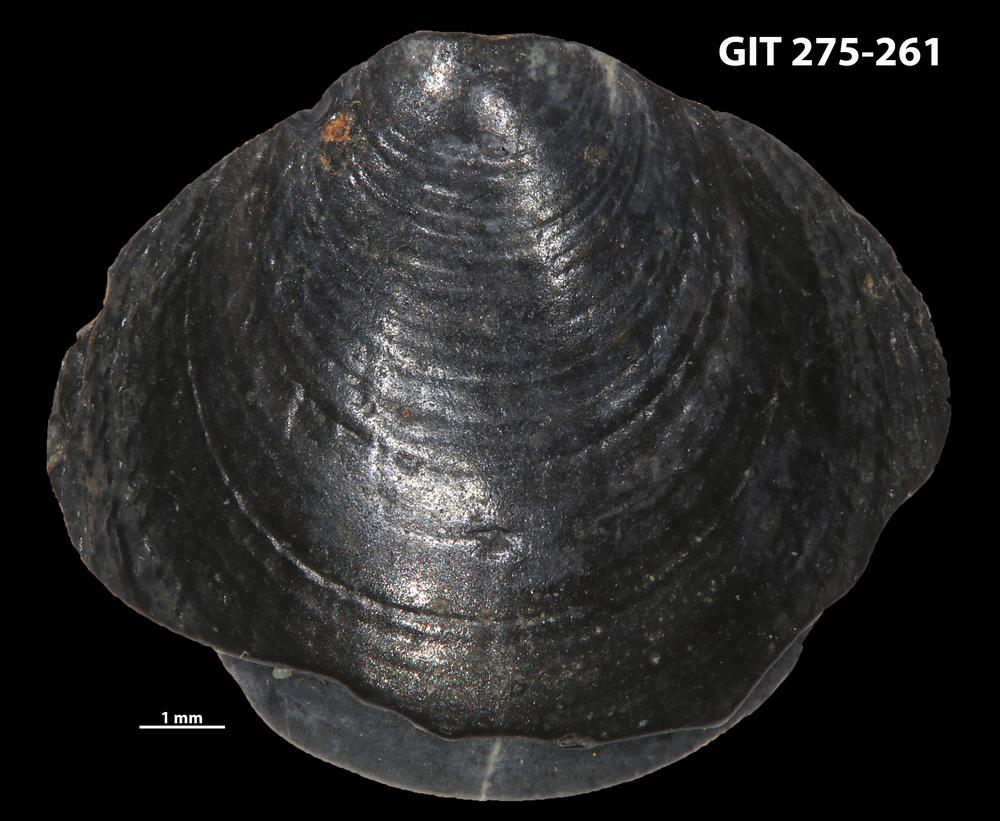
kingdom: Animalia
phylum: Porifera
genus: Ungula
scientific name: Ungula ingricus
